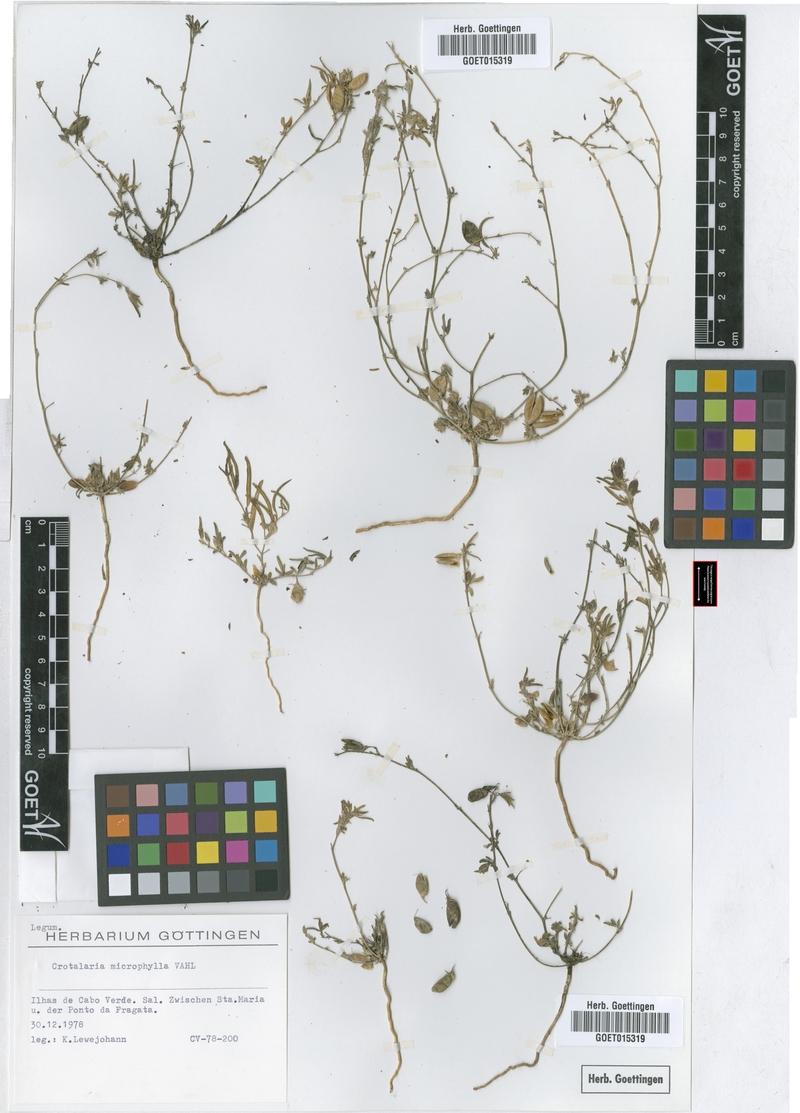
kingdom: Plantae
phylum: Tracheophyta
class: Magnoliopsida
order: Fabales
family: Fabaceae
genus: Crotalaria
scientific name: Crotalaria microphylla
